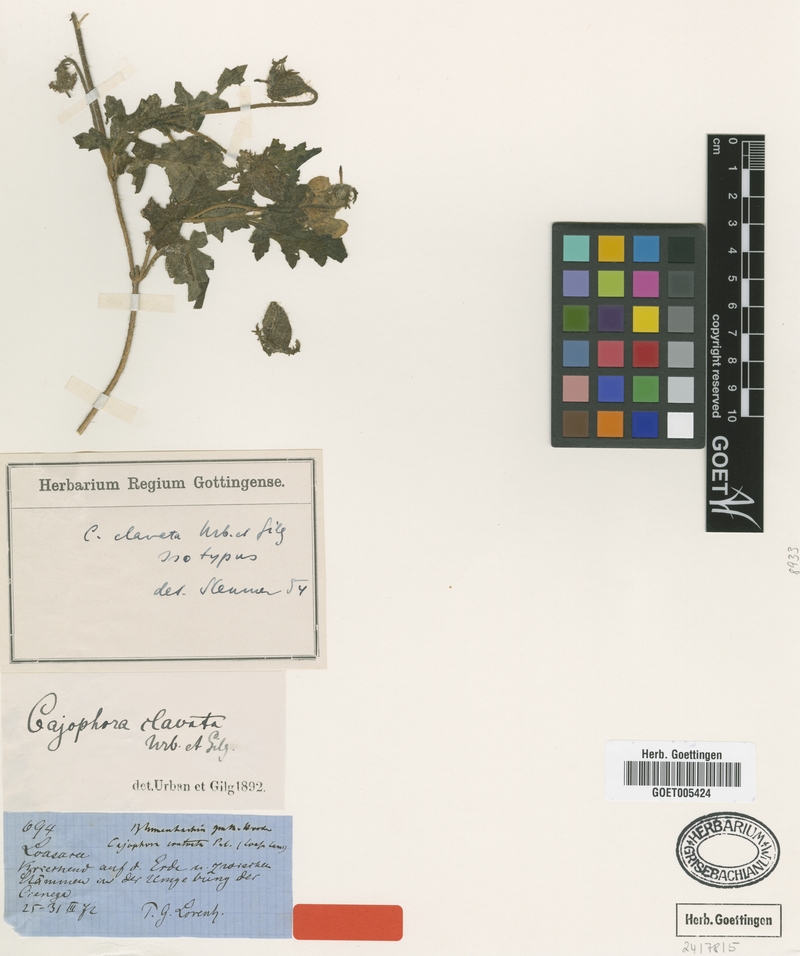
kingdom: Plantae
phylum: Tracheophyta
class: Magnoliopsida
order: Cornales
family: Loasaceae
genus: Caiophora
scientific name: Caiophora clavata
